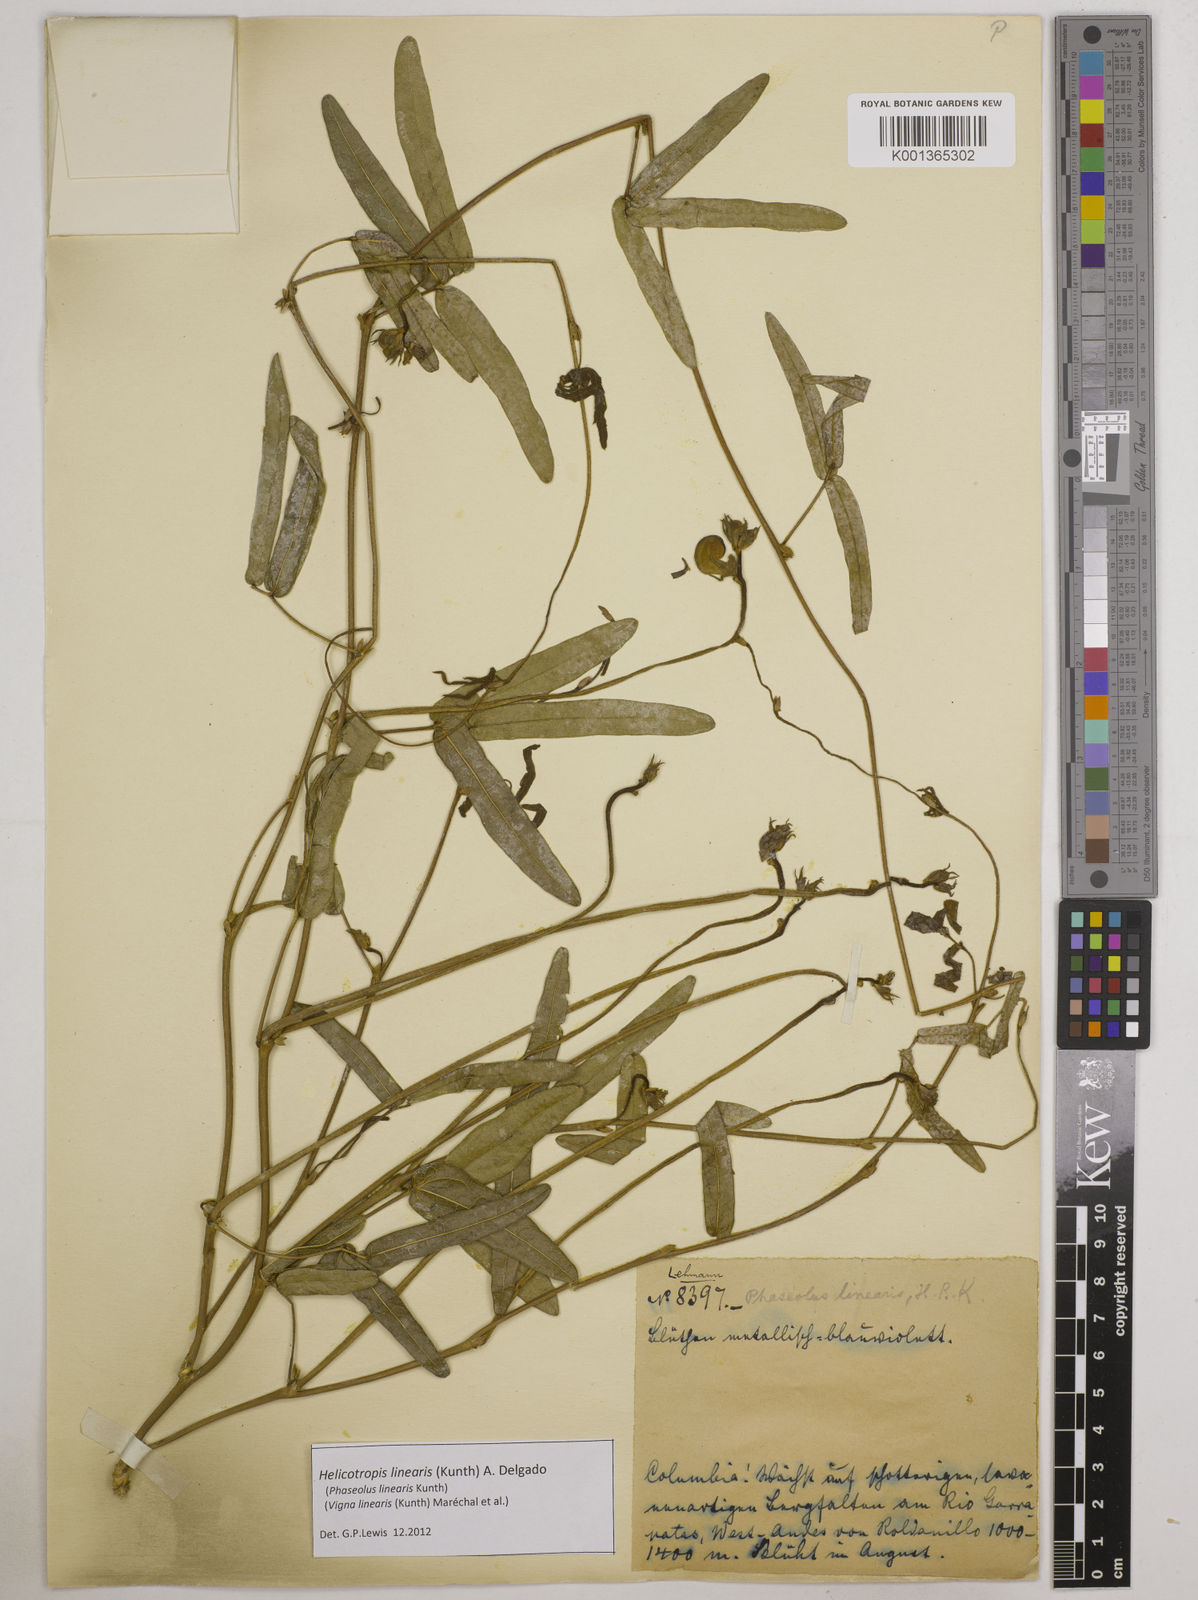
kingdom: Plantae
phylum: Tracheophyta
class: Magnoliopsida
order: Fabales
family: Fabaceae
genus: Helicotropis
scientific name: Helicotropis linearis
